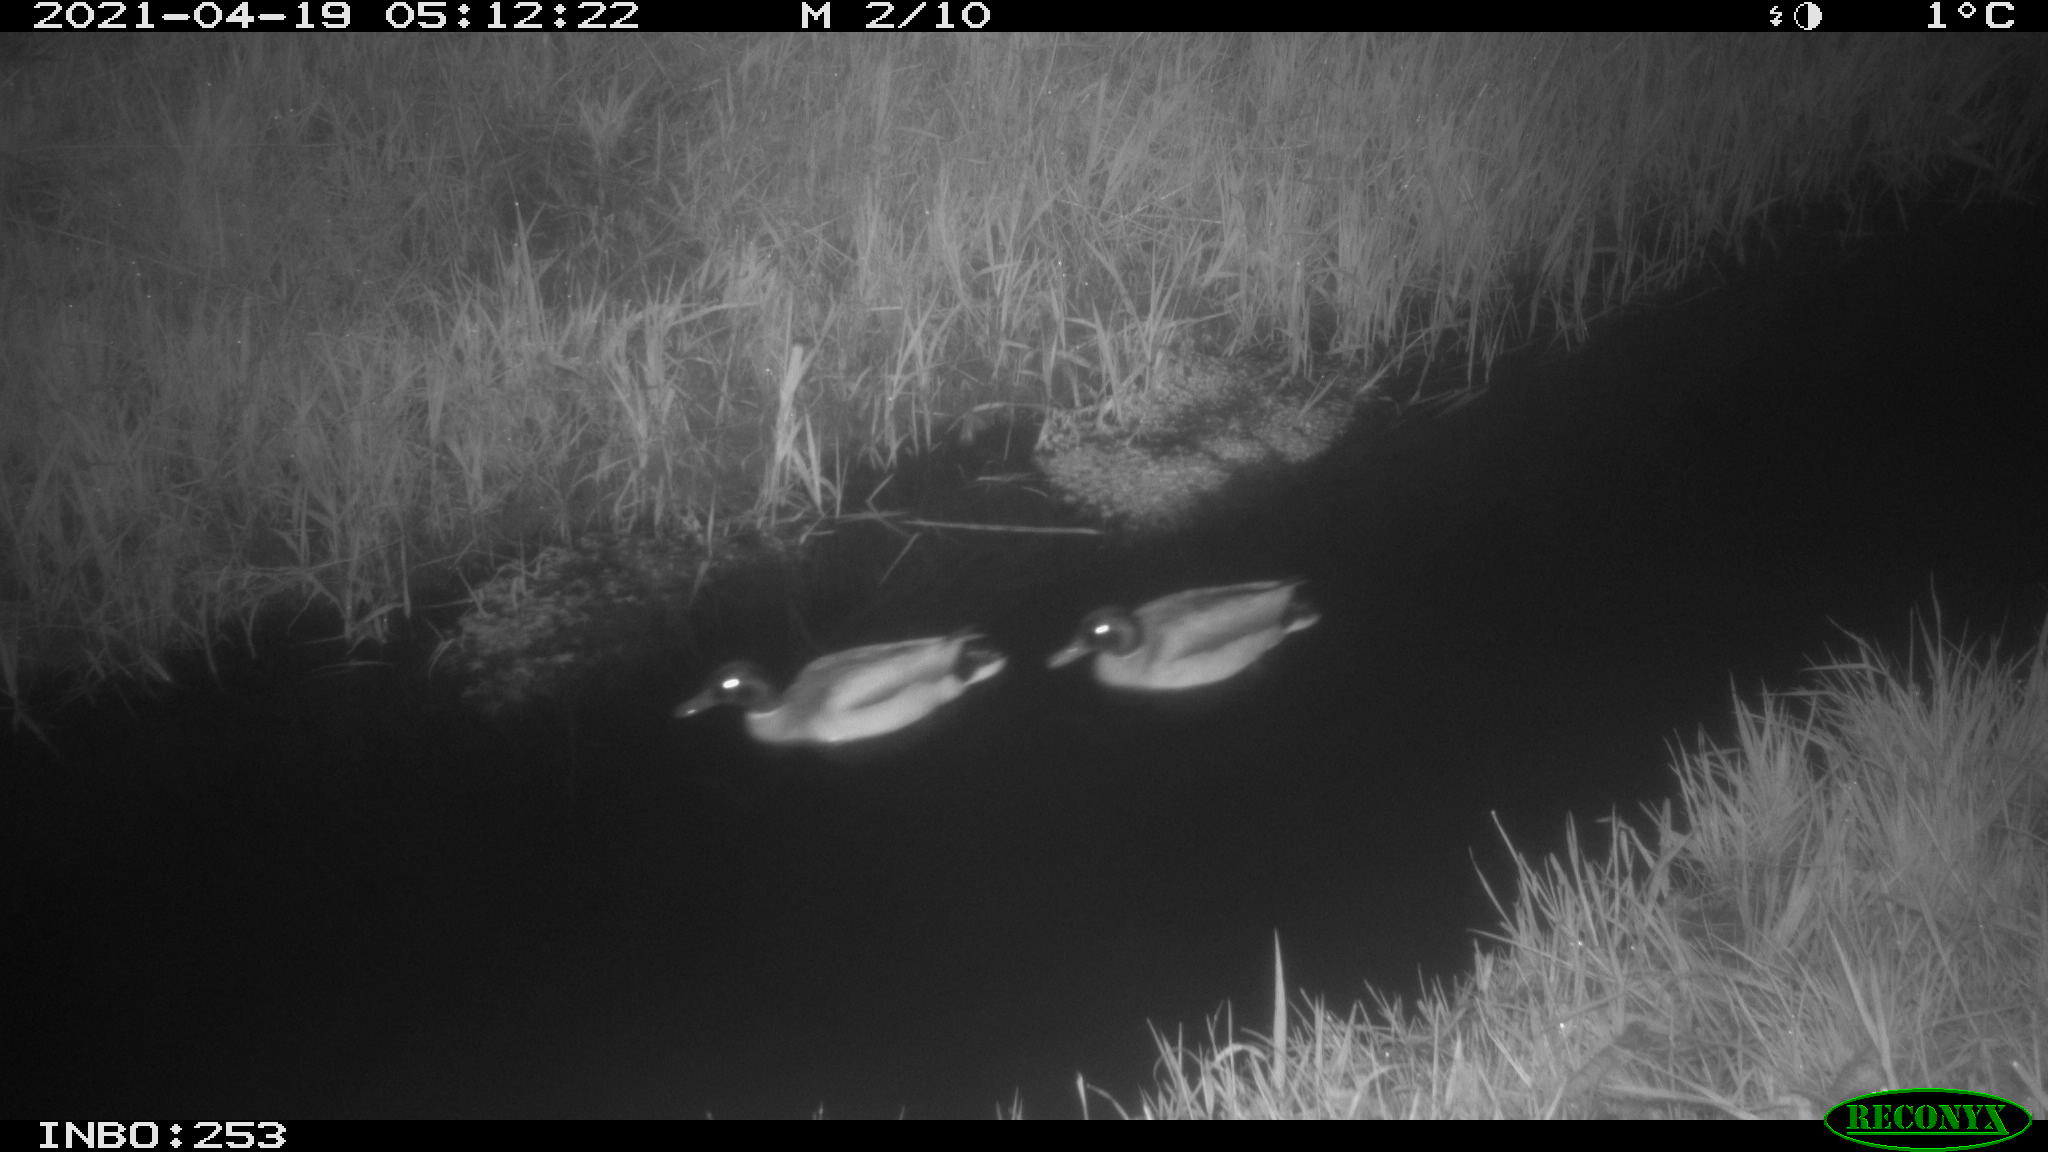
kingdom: Animalia
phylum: Chordata
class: Aves
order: Anseriformes
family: Anatidae
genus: Anas
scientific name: Anas platyrhynchos
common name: Mallard
